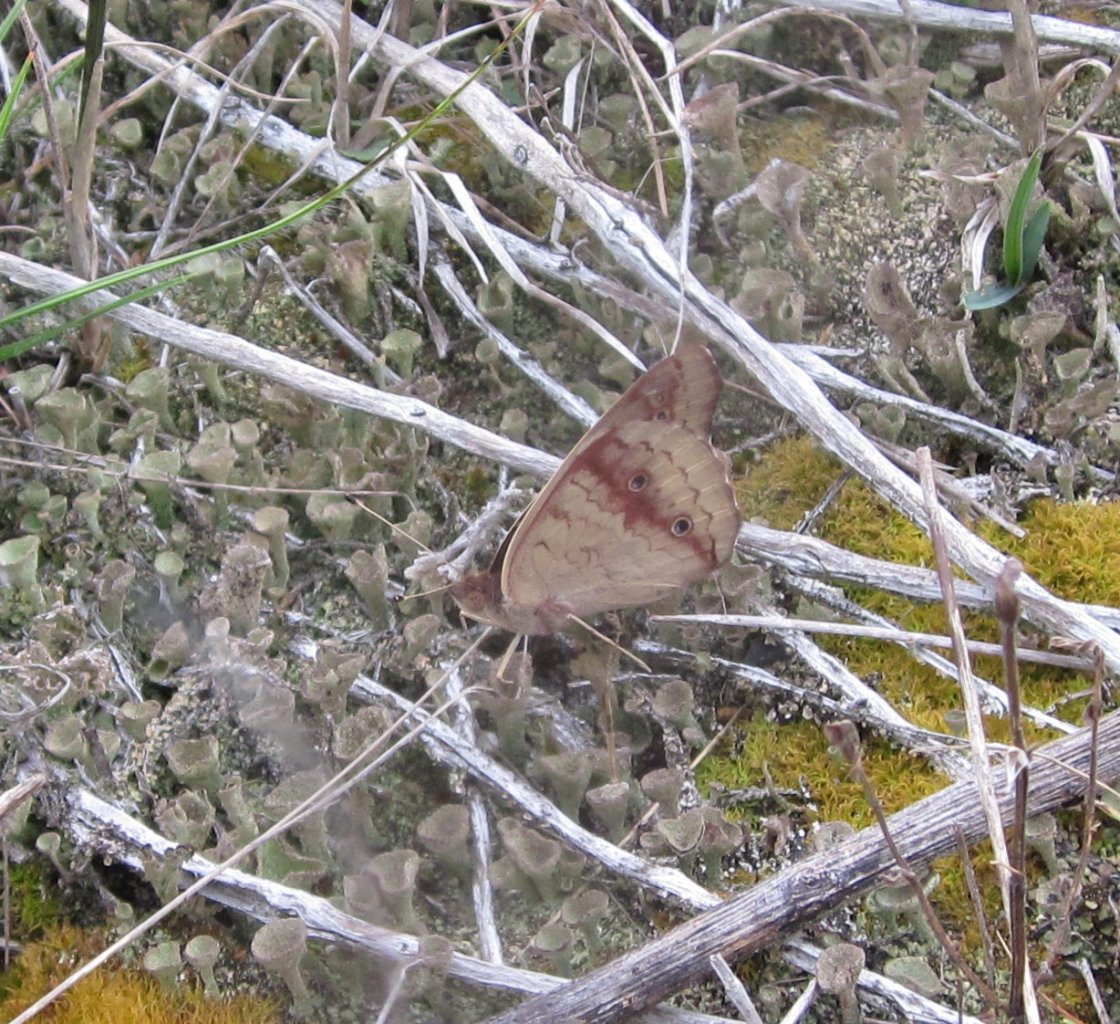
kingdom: Animalia
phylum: Arthropoda
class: Insecta
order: Lepidoptera
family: Nymphalidae
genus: Junonia
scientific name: Junonia coenia
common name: Common Buckeye
